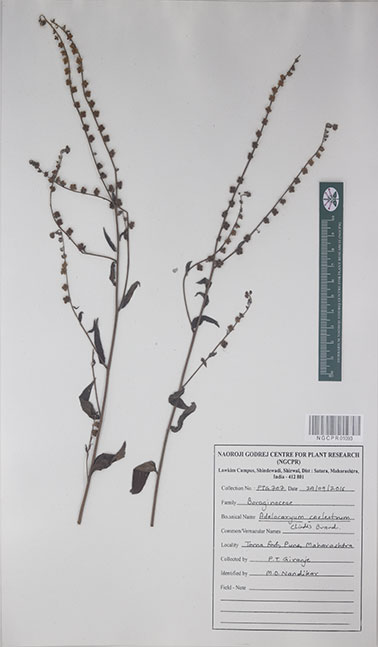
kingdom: Plantae
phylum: Tracheophyta
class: Magnoliopsida
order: Boraginales
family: Boraginaceae
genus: Paracaryum
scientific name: Paracaryum coelestinum
